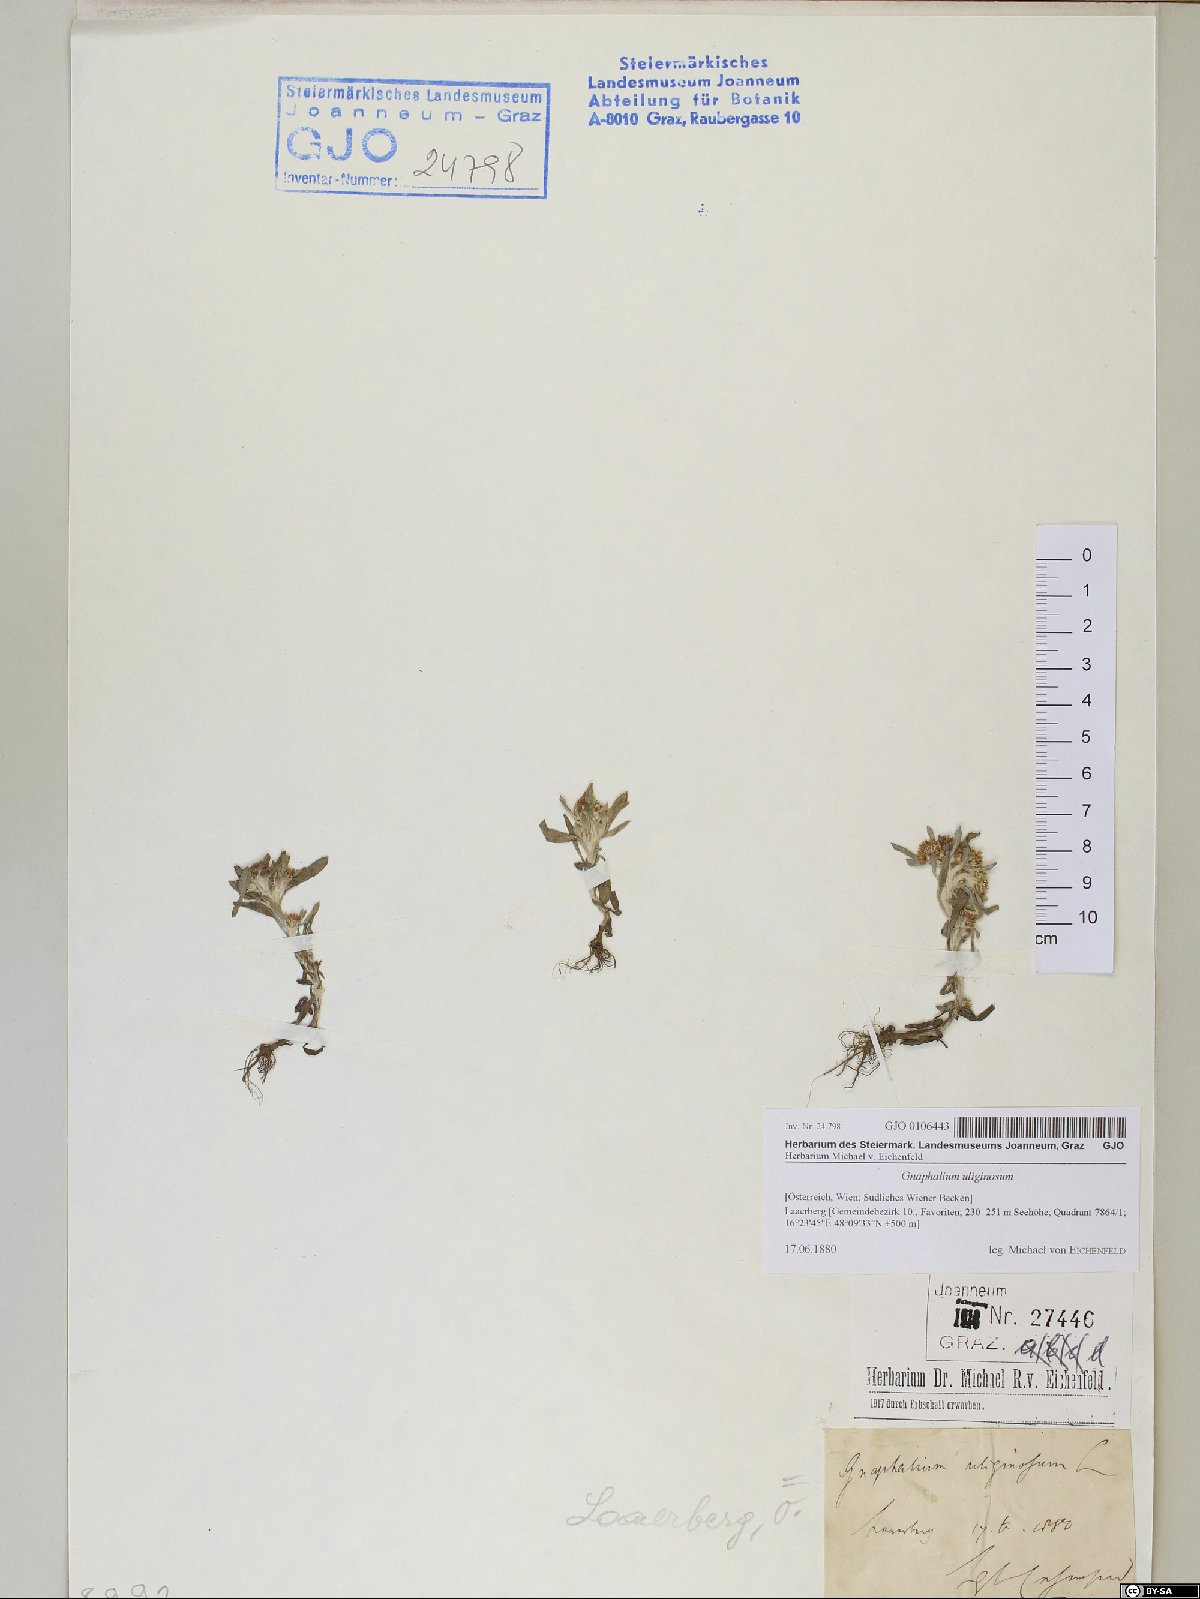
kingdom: Plantae
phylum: Tracheophyta
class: Magnoliopsida
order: Asterales
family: Asteraceae
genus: Gnaphalium
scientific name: Gnaphalium uliginosum
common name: Marsh cudweed
